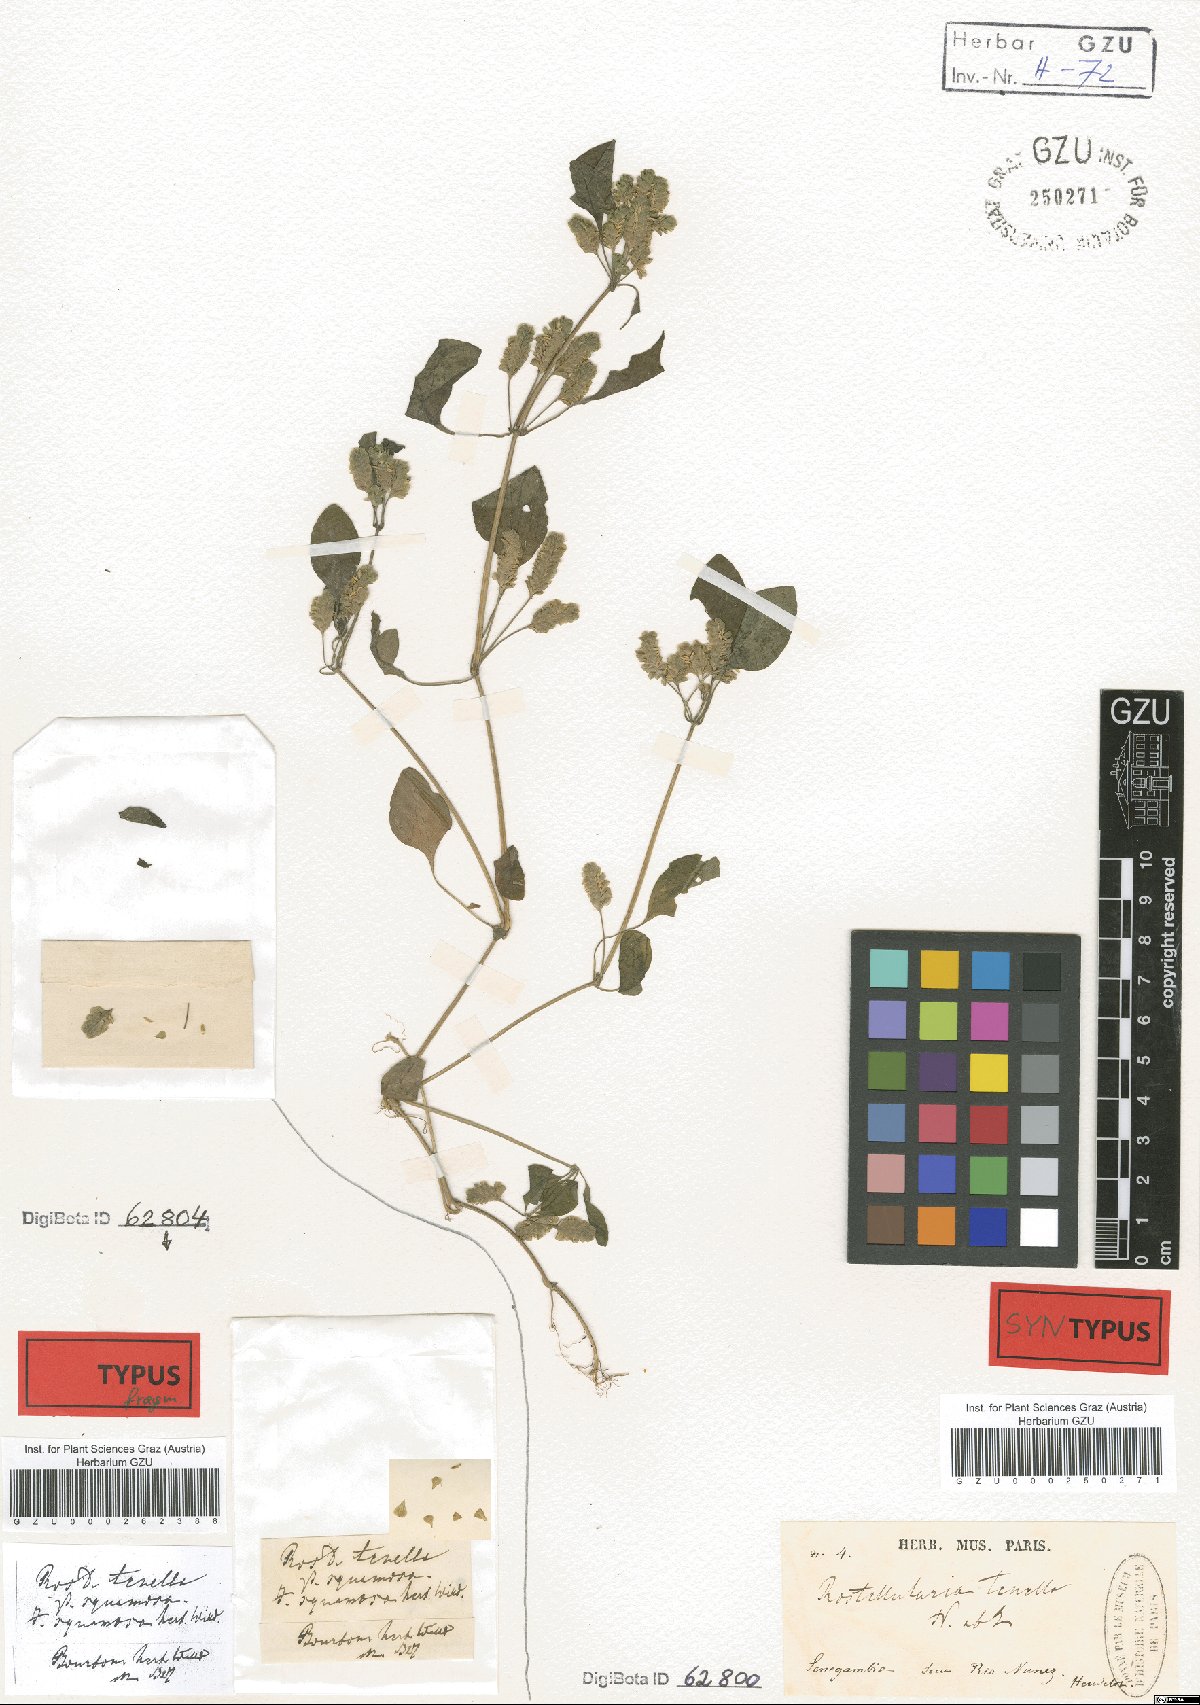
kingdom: Plantae
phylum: Tracheophyta
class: Magnoliopsida
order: Lamiales
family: Acanthaceae
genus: Anisostachya
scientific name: Anisostachya tenella
